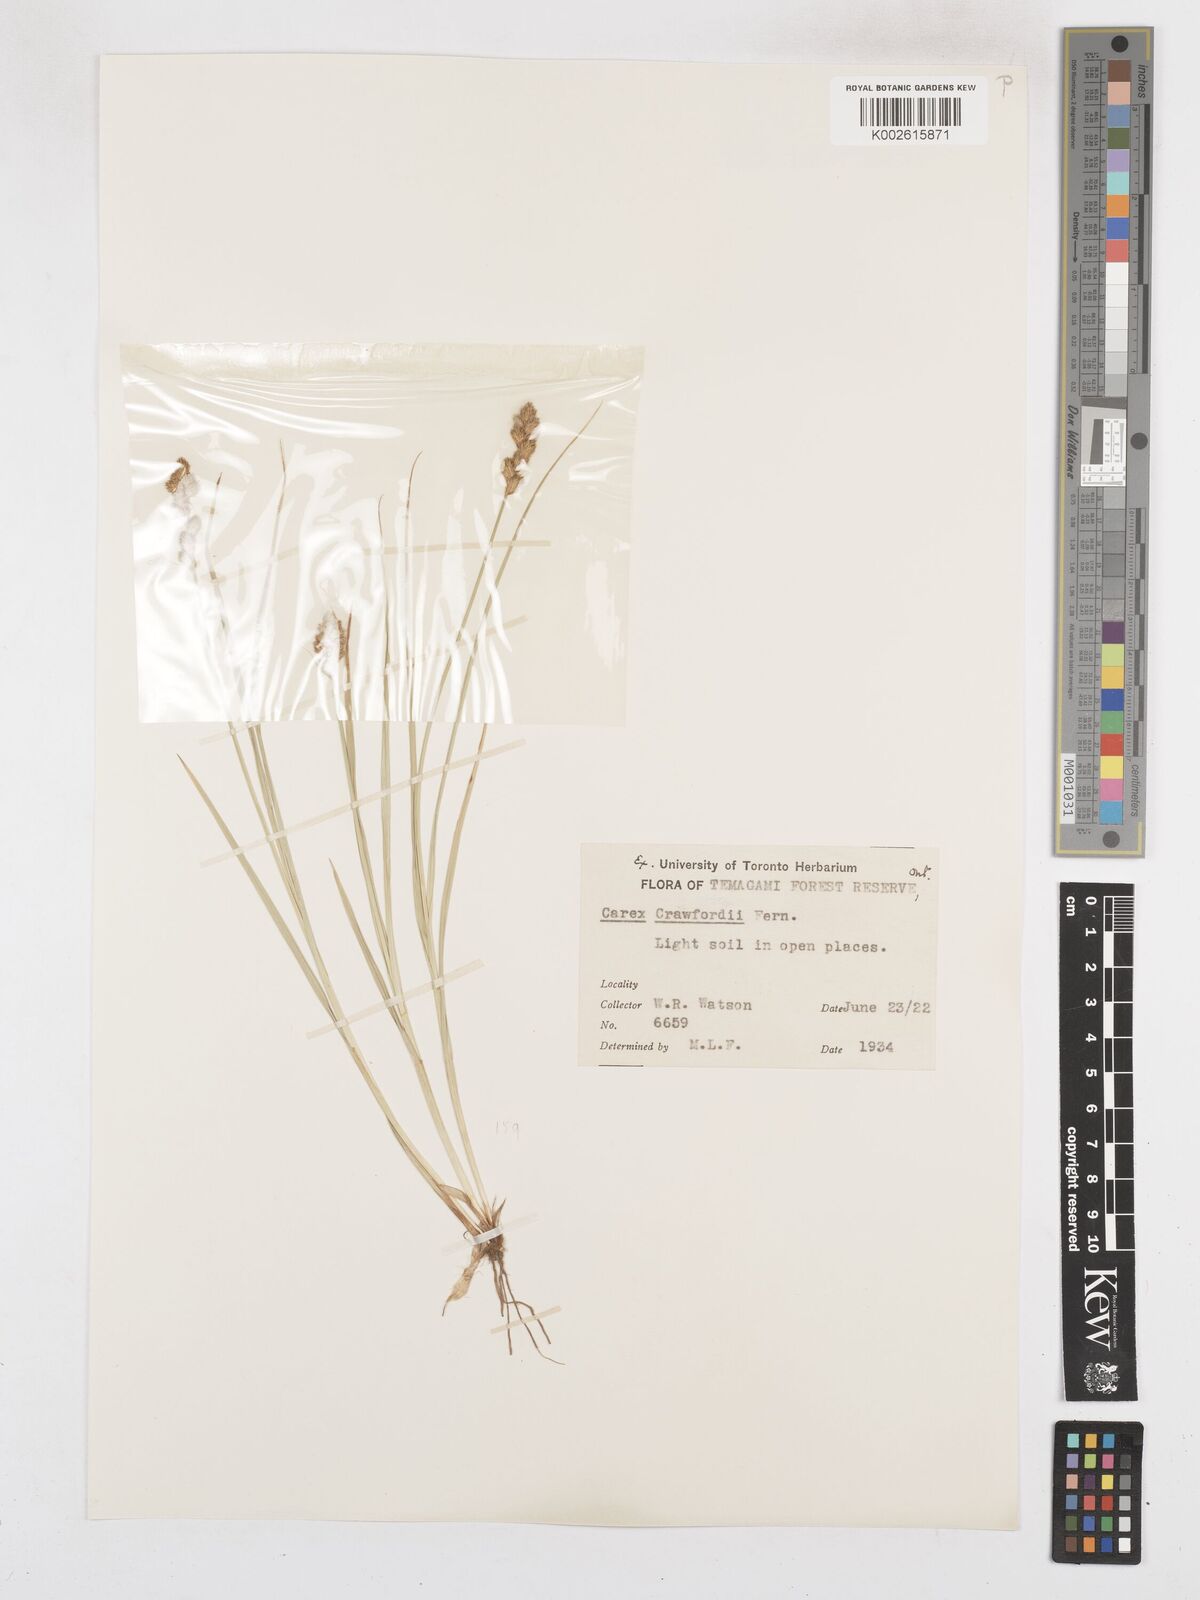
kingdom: Plantae
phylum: Tracheophyta
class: Liliopsida
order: Poales
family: Cyperaceae
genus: Carex
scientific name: Carex crawfordii
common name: Crawford's sedge
